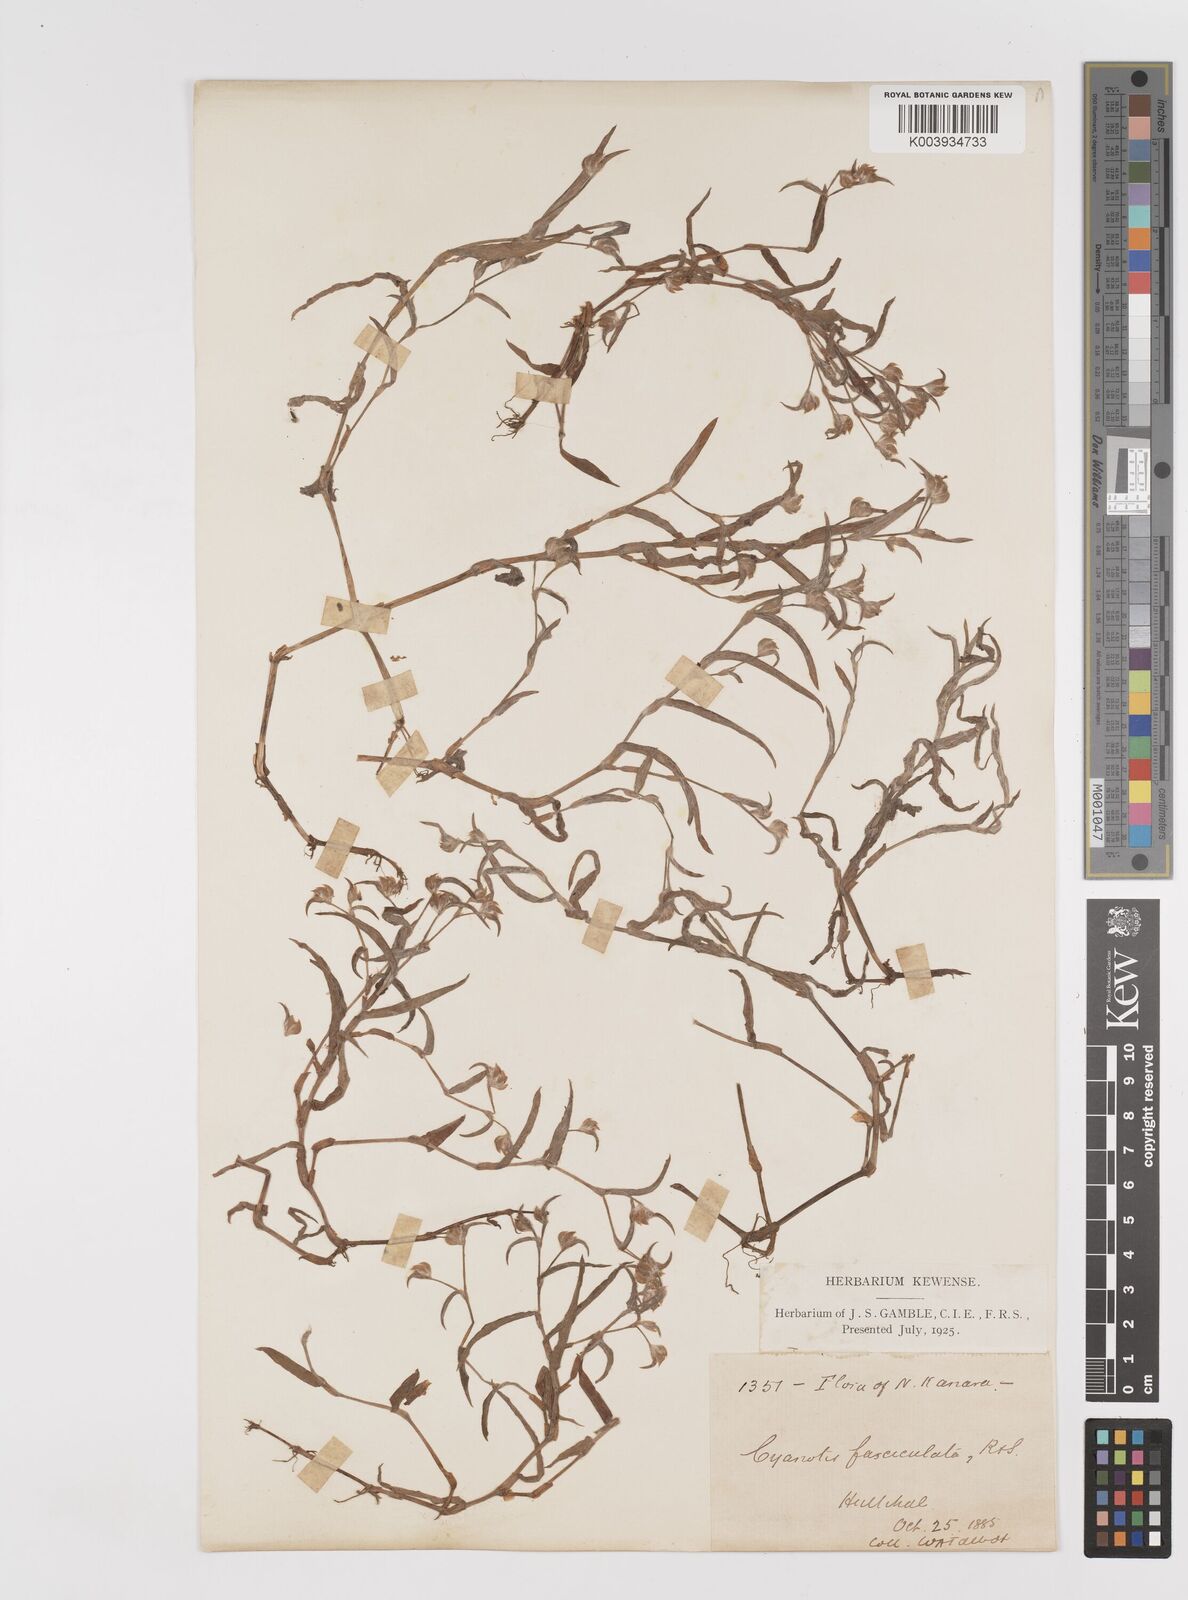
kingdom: Plantae
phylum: Tracheophyta
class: Liliopsida
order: Commelinales
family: Commelinaceae
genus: Cyanotis
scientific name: Cyanotis fasciculata
